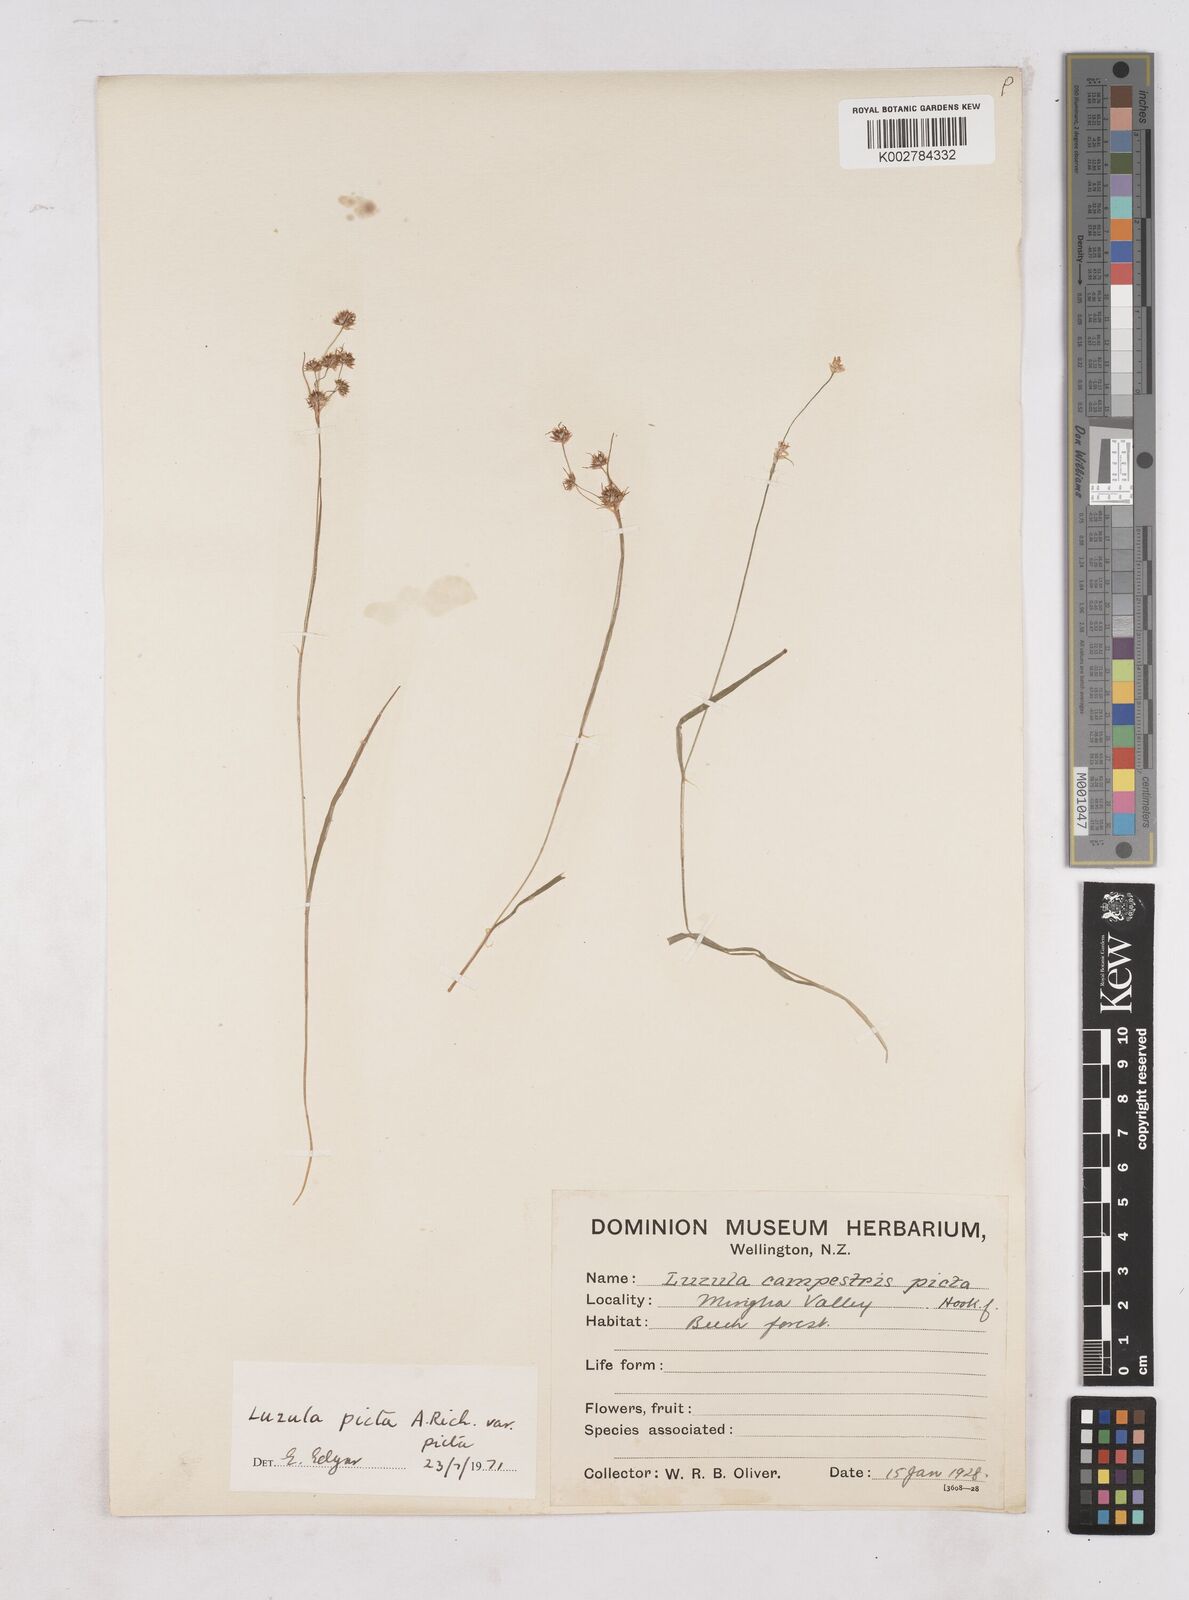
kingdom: Plantae
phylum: Tracheophyta
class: Liliopsida
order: Poales
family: Juncaceae
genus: Luzula
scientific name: Luzula picta
